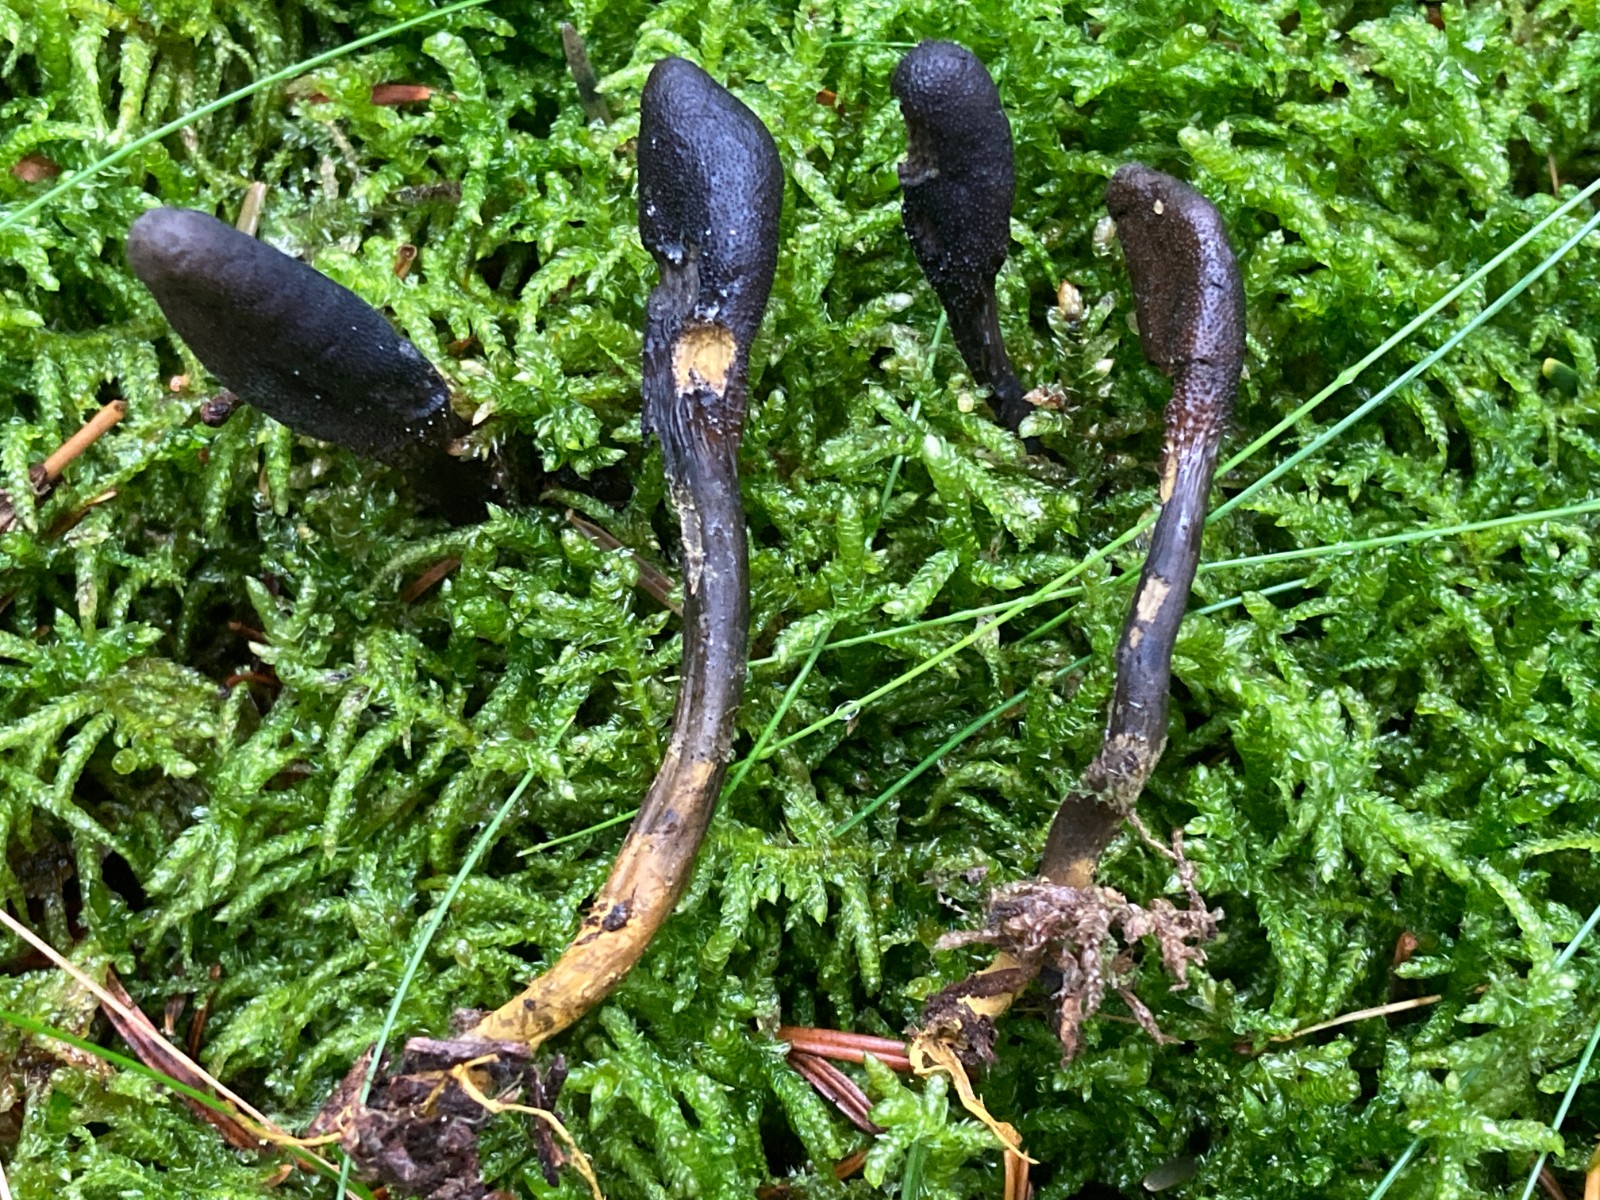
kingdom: Fungi
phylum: Ascomycota
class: Sordariomycetes
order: Hypocreales
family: Ophiocordycipitaceae
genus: Tolypocladium
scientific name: Tolypocladium ophioglossoides
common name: slank snyltekølle
